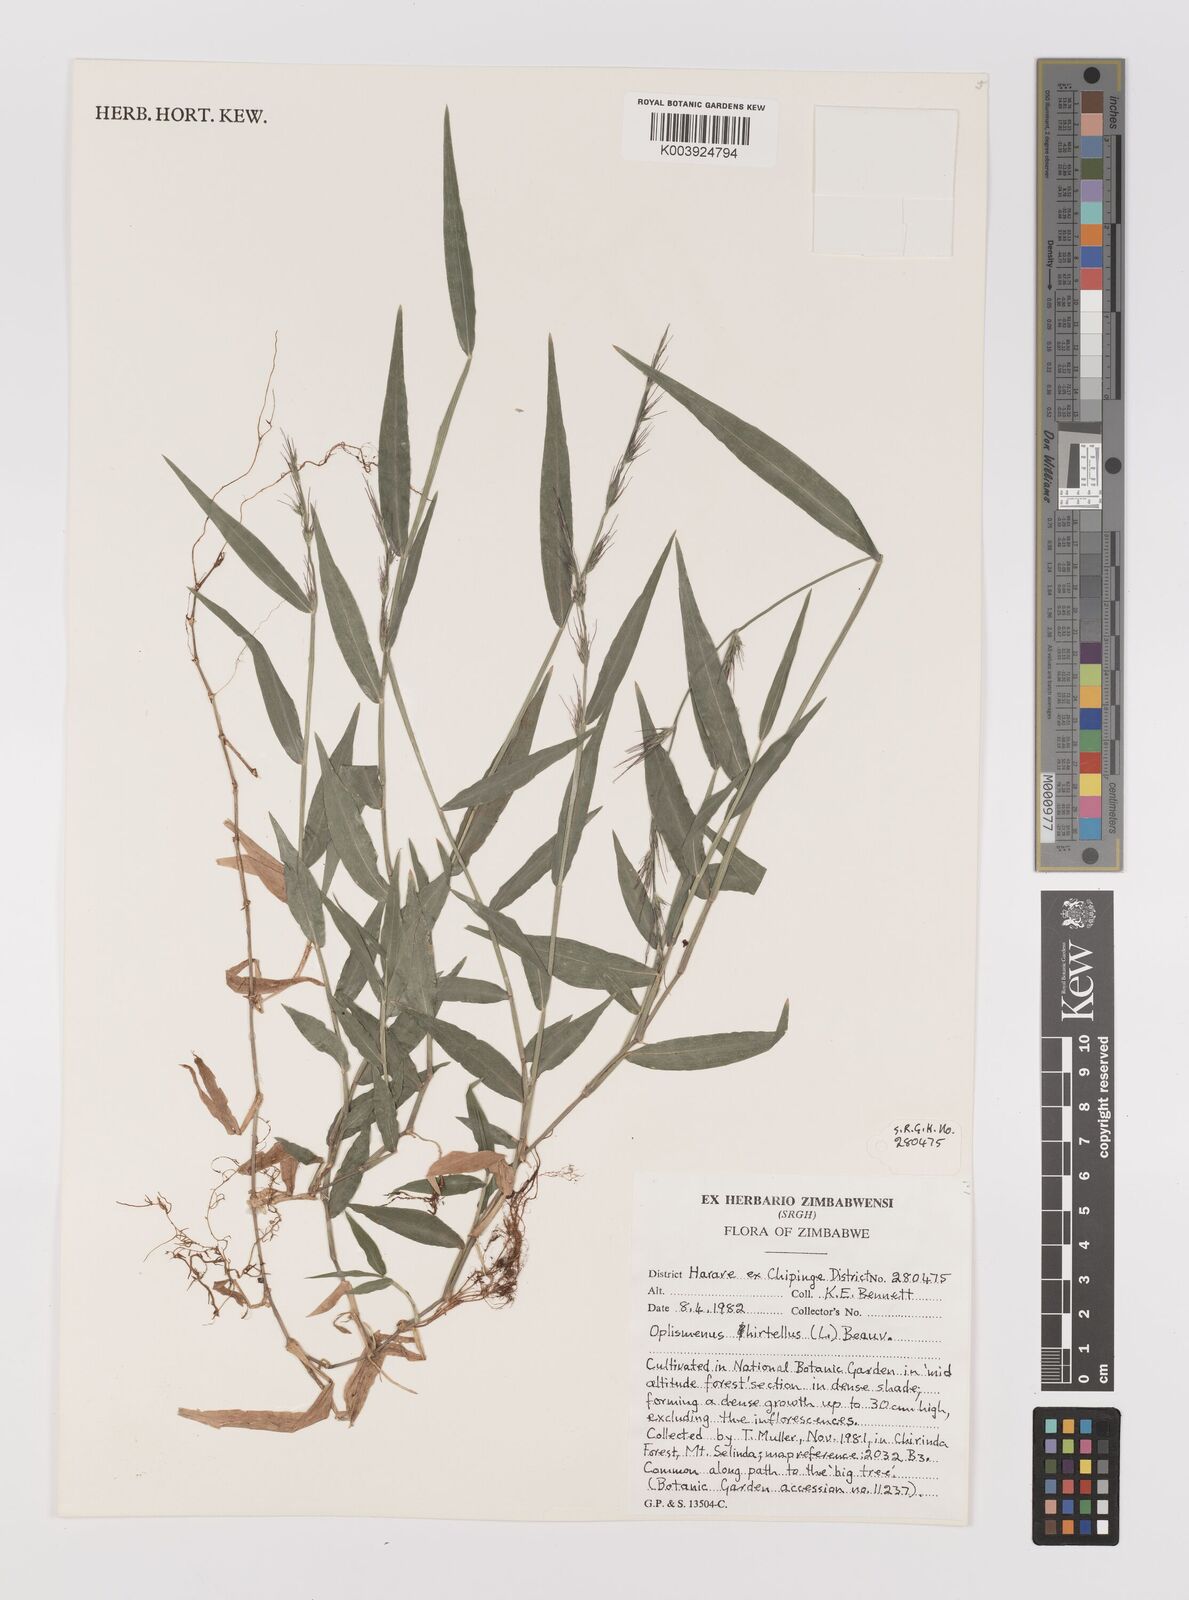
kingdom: Plantae
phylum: Tracheophyta
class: Liliopsida
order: Poales
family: Poaceae
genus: Oplismenus
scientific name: Oplismenus hirtellus
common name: Basketgrass
